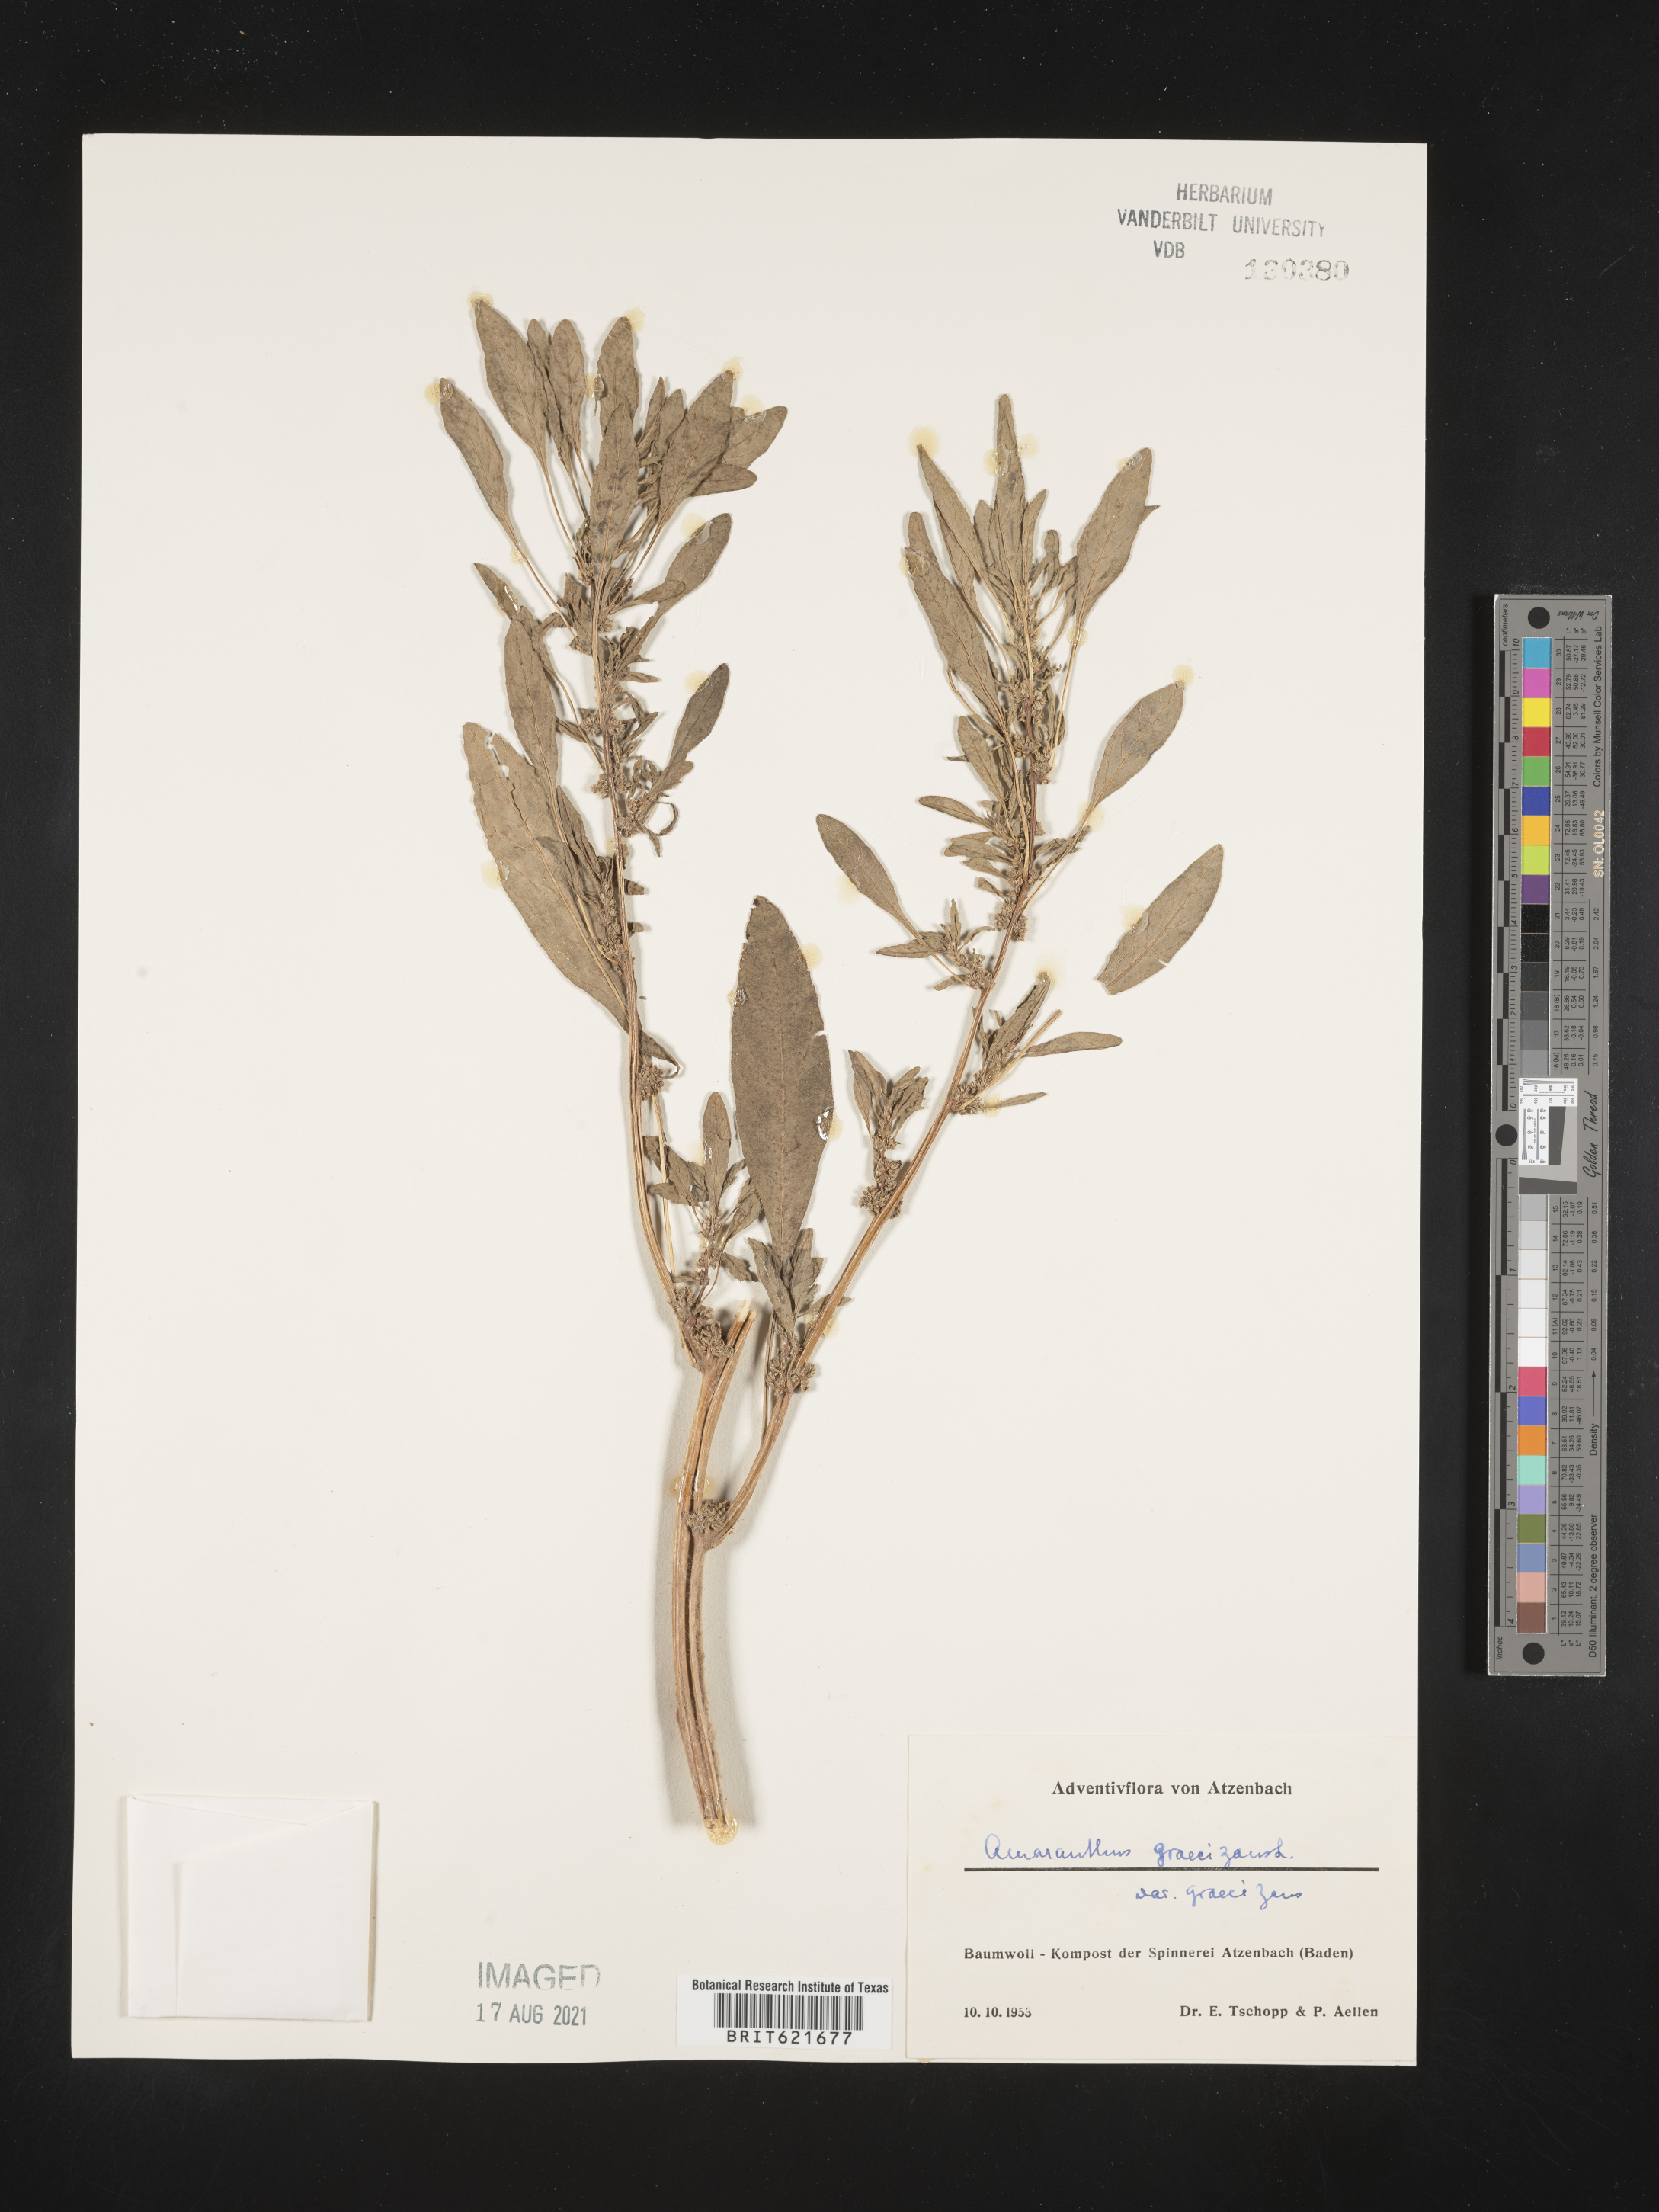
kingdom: Plantae
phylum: Tracheophyta
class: Magnoliopsida
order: Caryophyllales
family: Amaranthaceae
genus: Amaranthus
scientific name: Amaranthus graecizans
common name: Mediterranean amaranth
